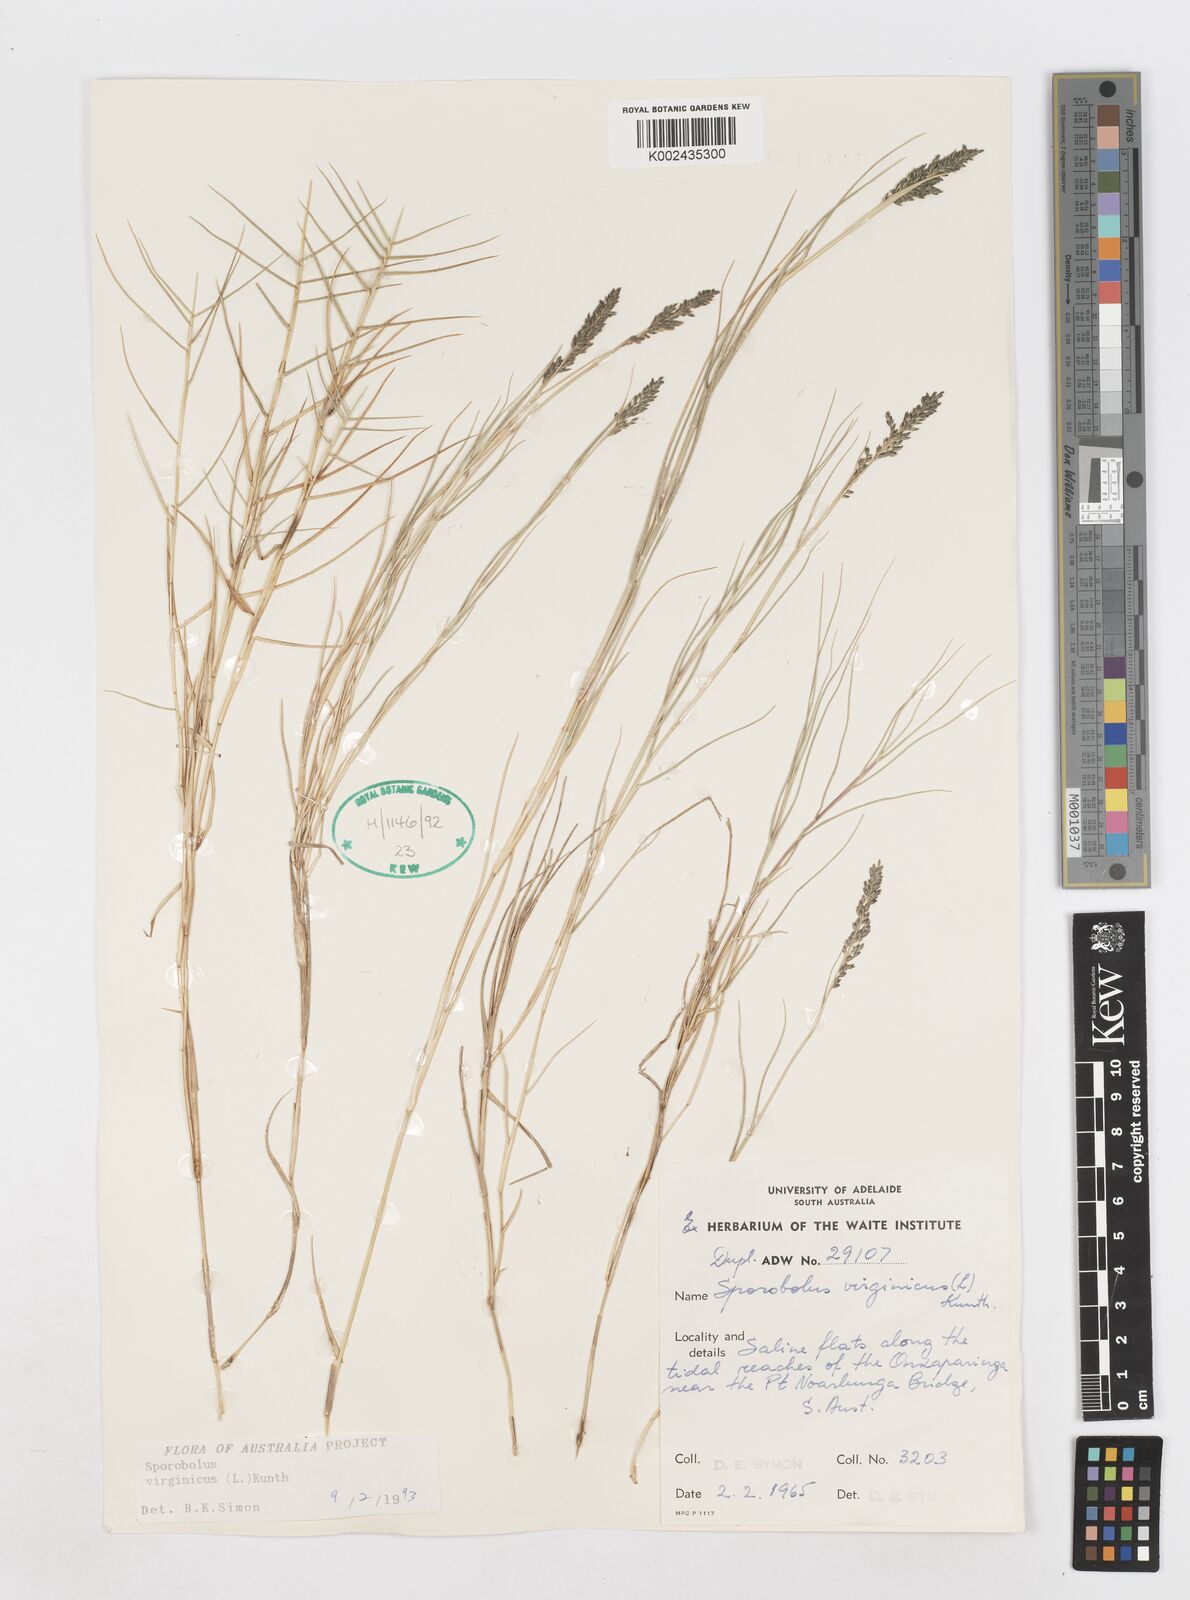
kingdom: Plantae
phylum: Tracheophyta
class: Liliopsida
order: Poales
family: Poaceae
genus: Sporobolus
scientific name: Sporobolus virginicus
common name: Beach dropseed
